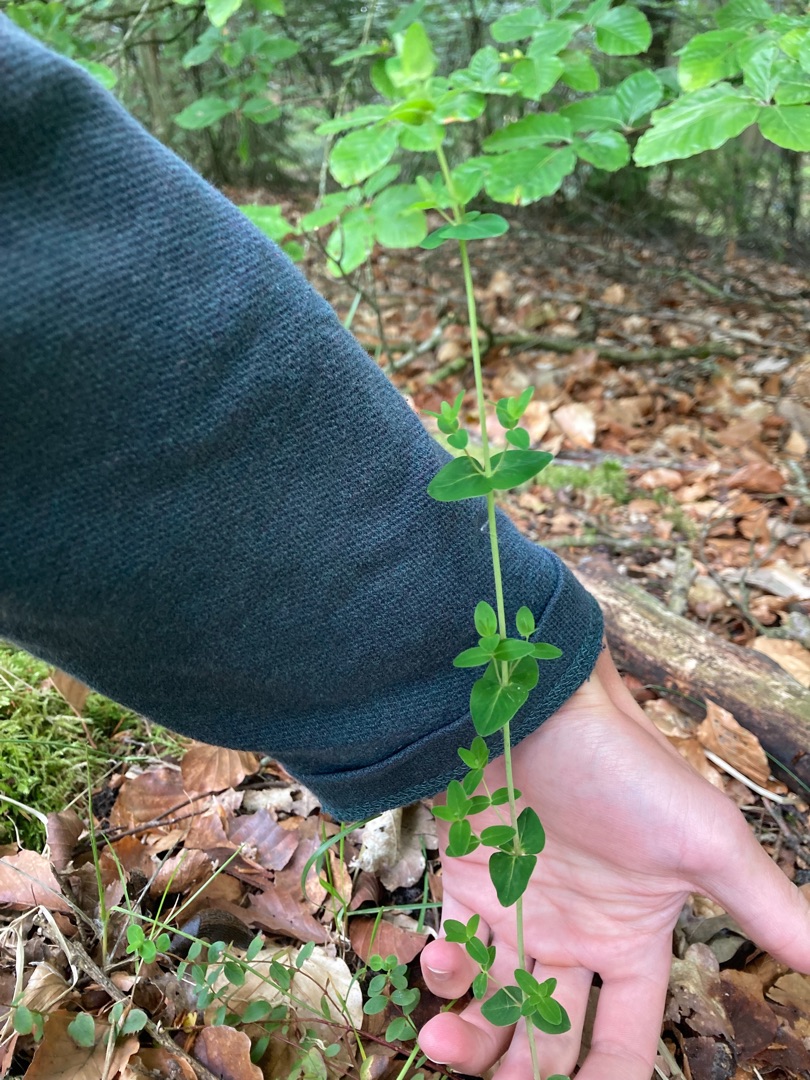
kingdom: Plantae
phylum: Tracheophyta
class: Magnoliopsida
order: Malpighiales
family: Hypericaceae
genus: Hypericum
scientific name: Hypericum pulchrum
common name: Smuk perikon
